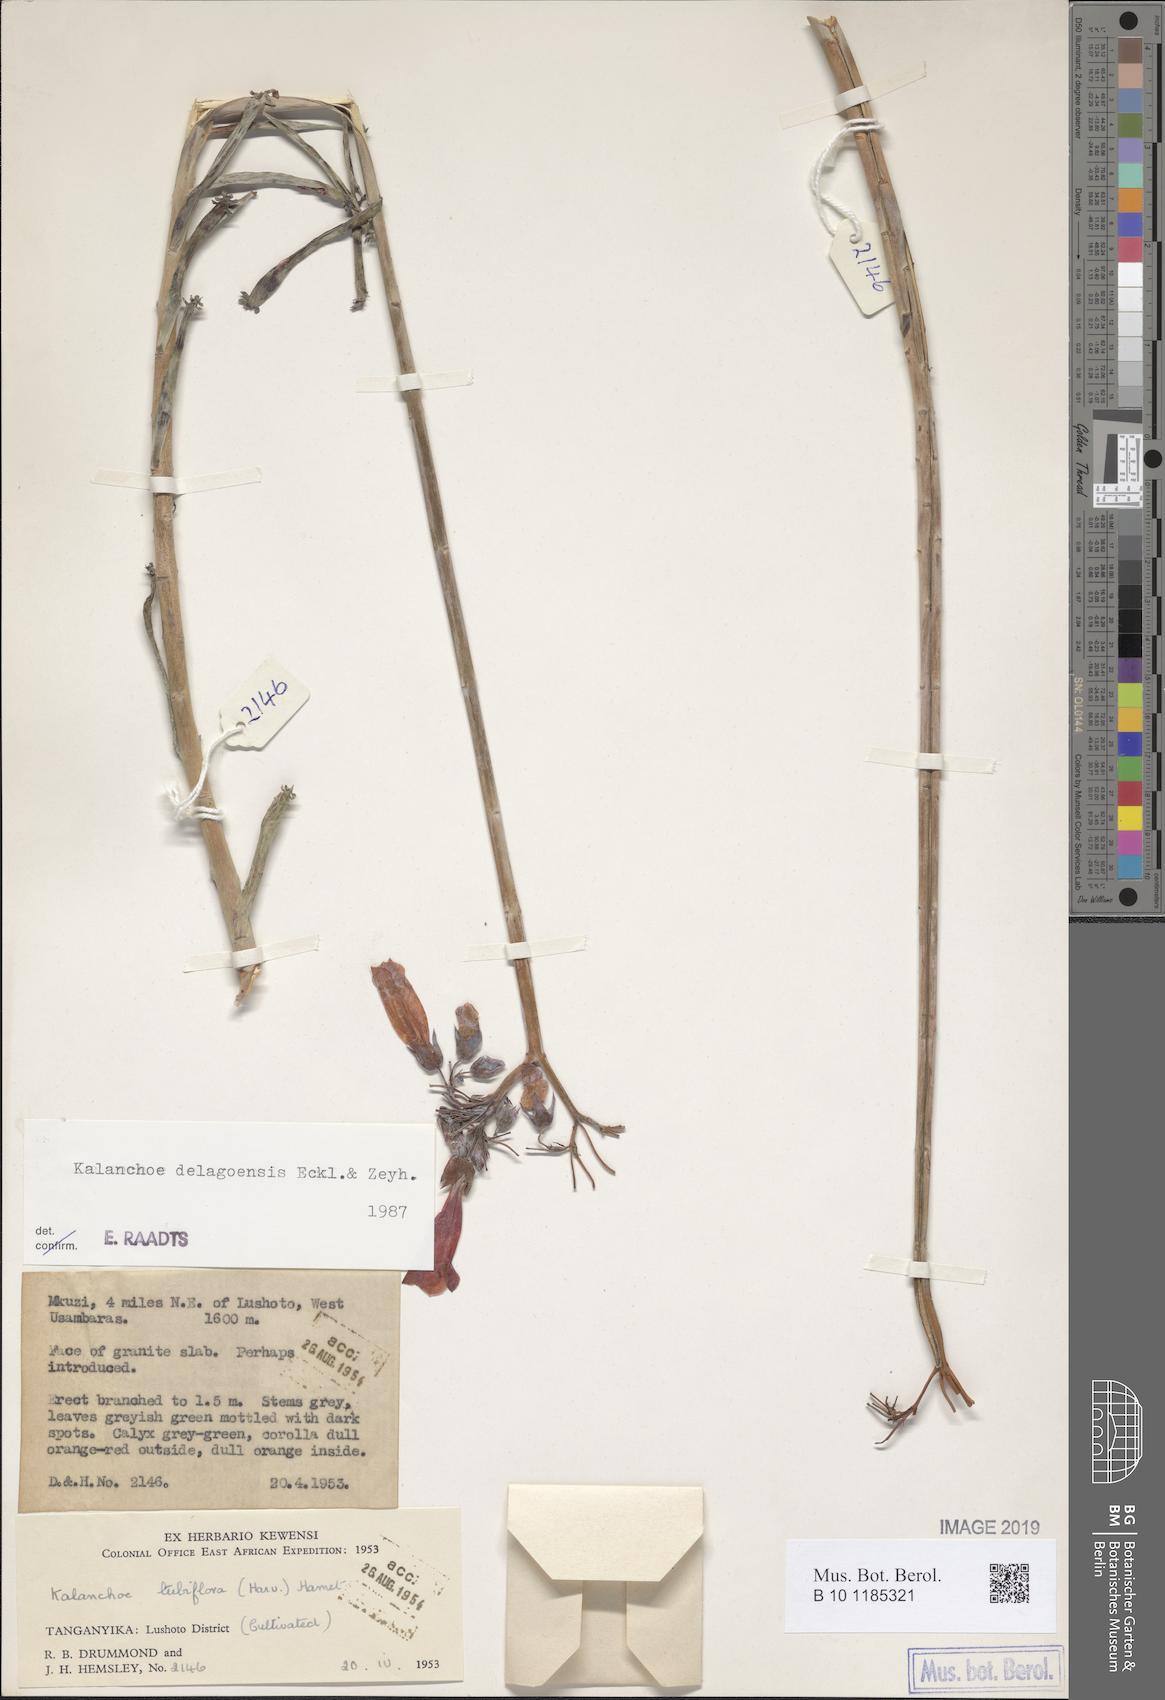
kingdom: Plantae
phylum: Tracheophyta
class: Magnoliopsida
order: Saxifragales
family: Crassulaceae
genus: Kalanchoe
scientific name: Kalanchoe delagoensis
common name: Chandelier plant
